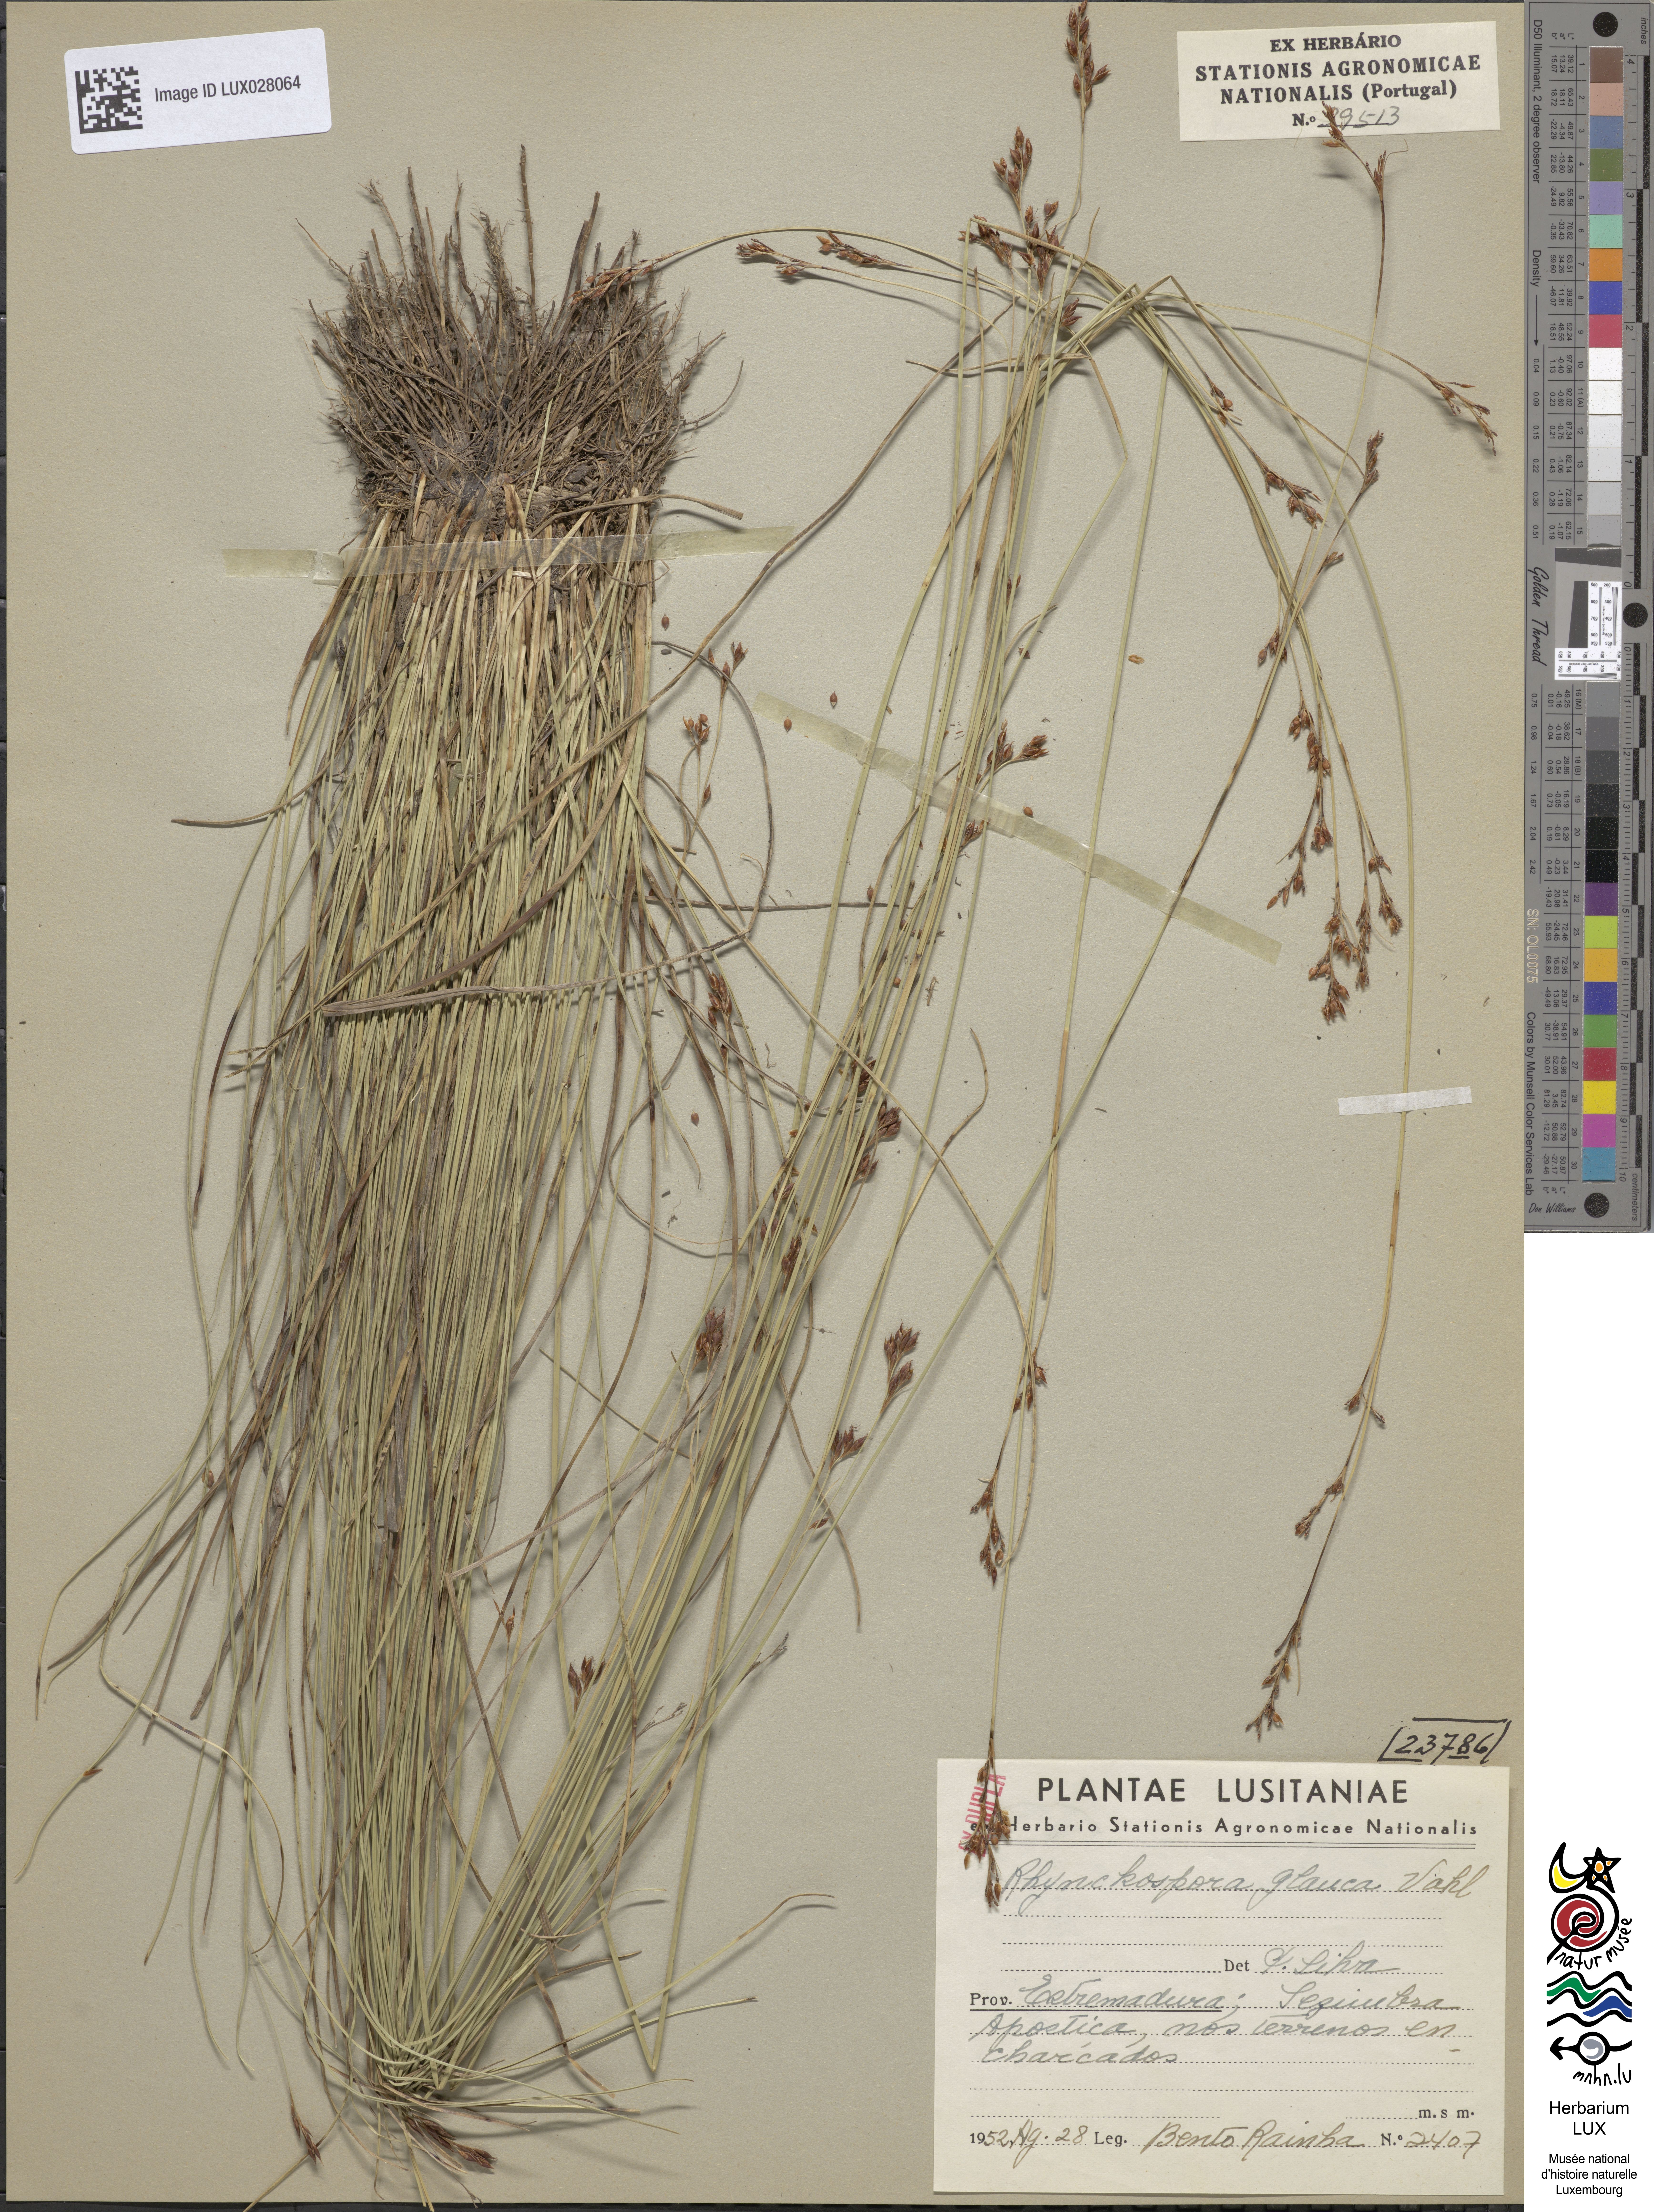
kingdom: Plantae
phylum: Tracheophyta
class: Liliopsida
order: Poales
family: Cyperaceae
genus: Rhynchospora
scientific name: Rhynchospora rugosa
